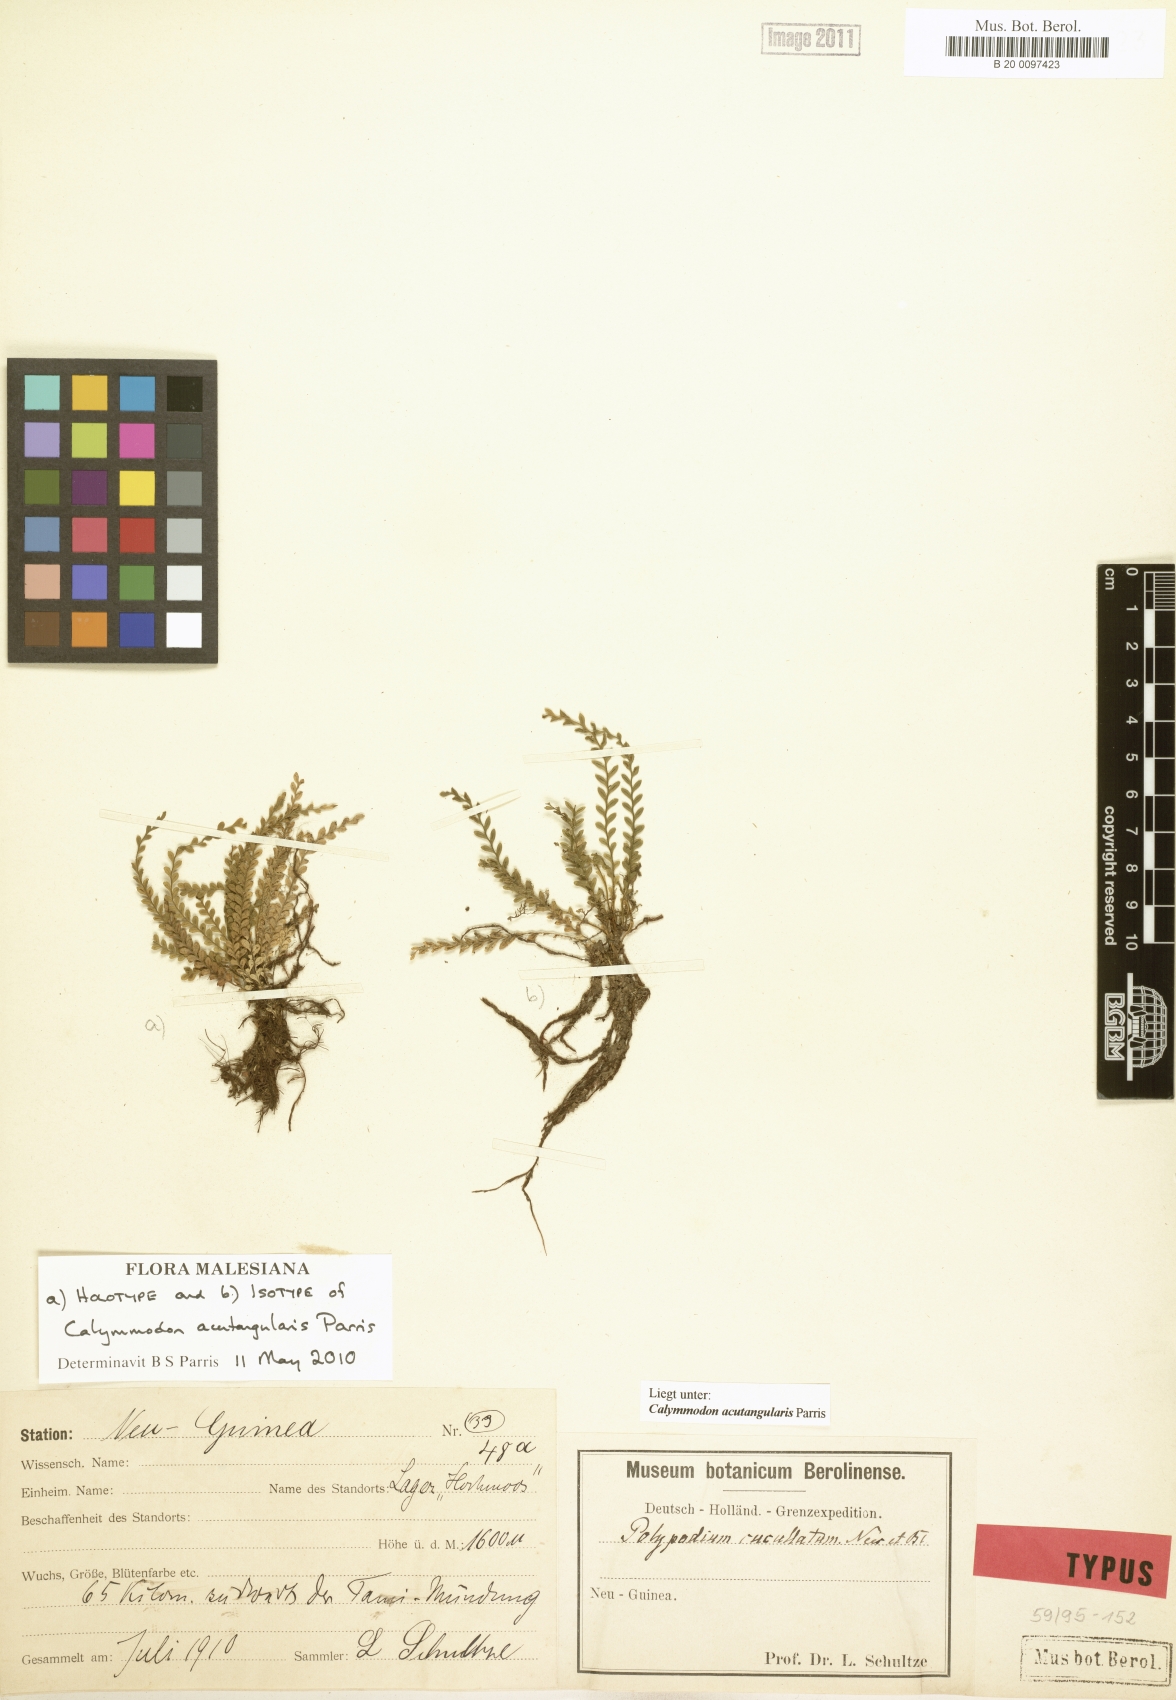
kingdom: Plantae
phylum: Tracheophyta
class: Polypodiopsida
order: Polypodiales
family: Polypodiaceae
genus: Calymmodon
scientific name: Calymmodon acutangularis
